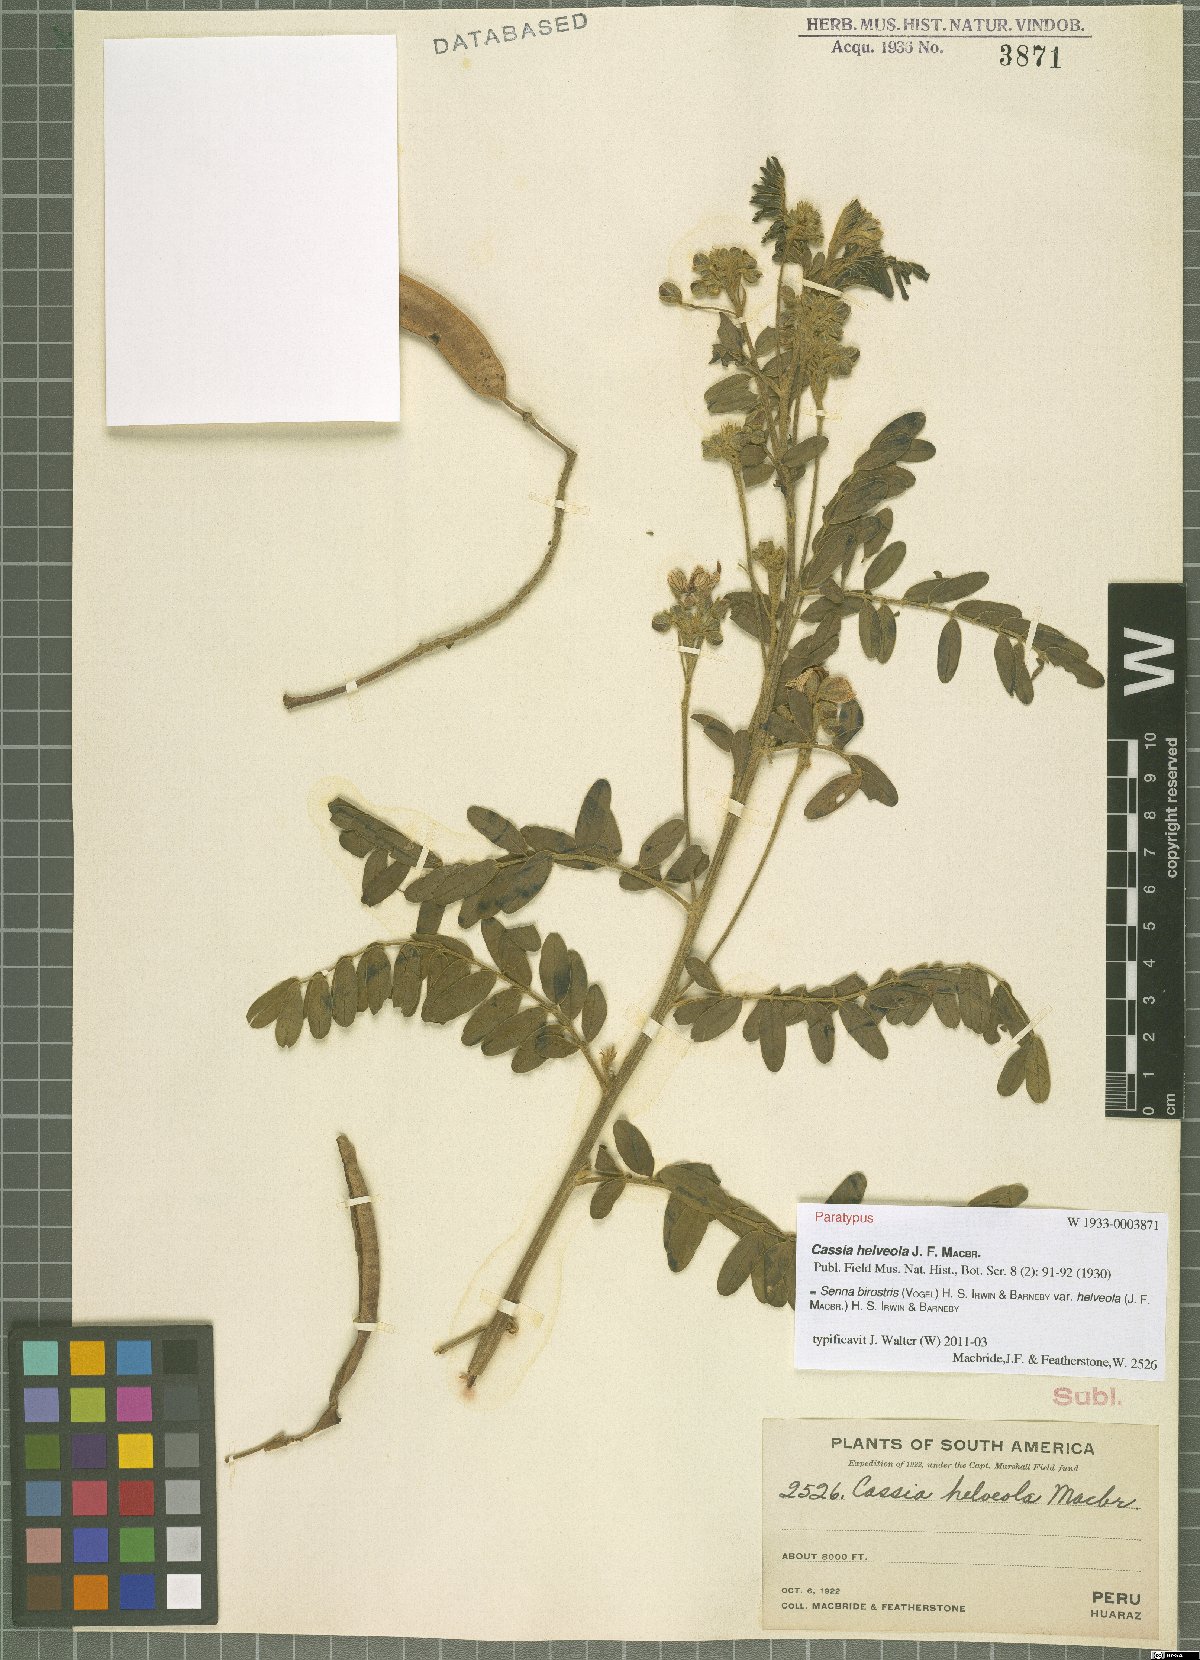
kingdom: Plantae
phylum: Tracheophyta
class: Magnoliopsida
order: Fabales
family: Fabaceae
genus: Senna
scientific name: Senna birostris
